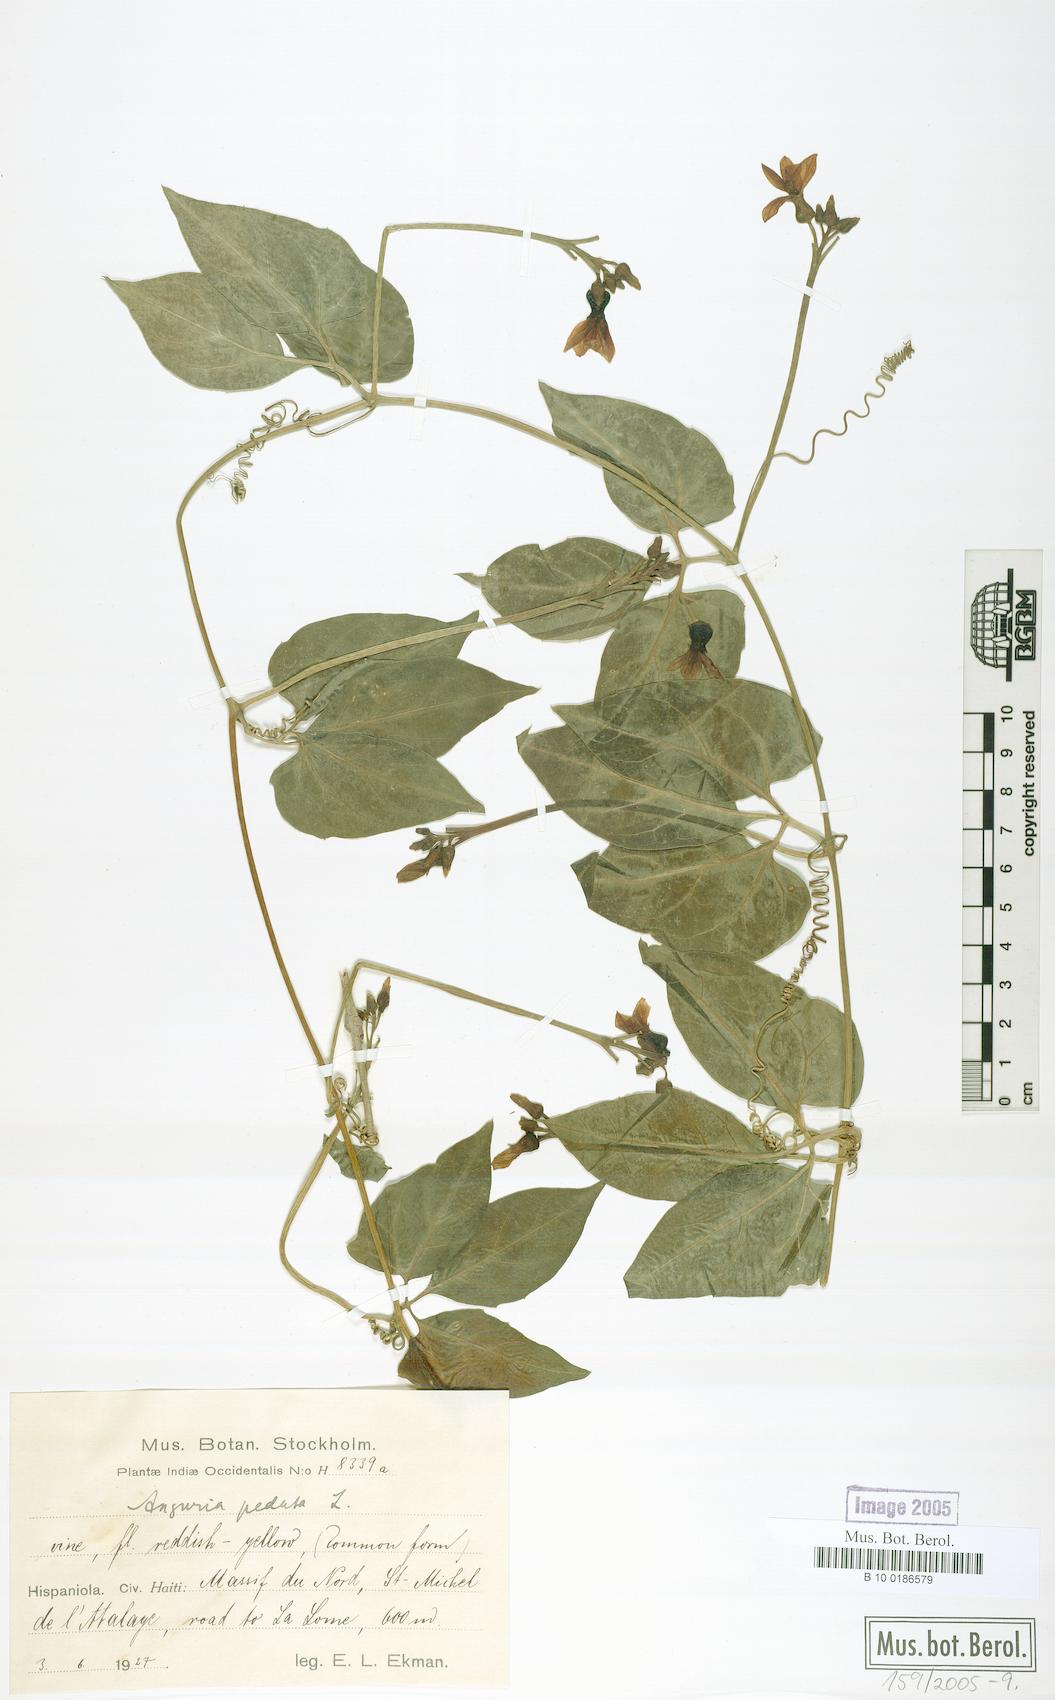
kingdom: Plantae
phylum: Tracheophyta
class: Magnoliopsida
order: Cucurbitales
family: Cucurbitaceae
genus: Gurania
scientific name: Gurania pedata
